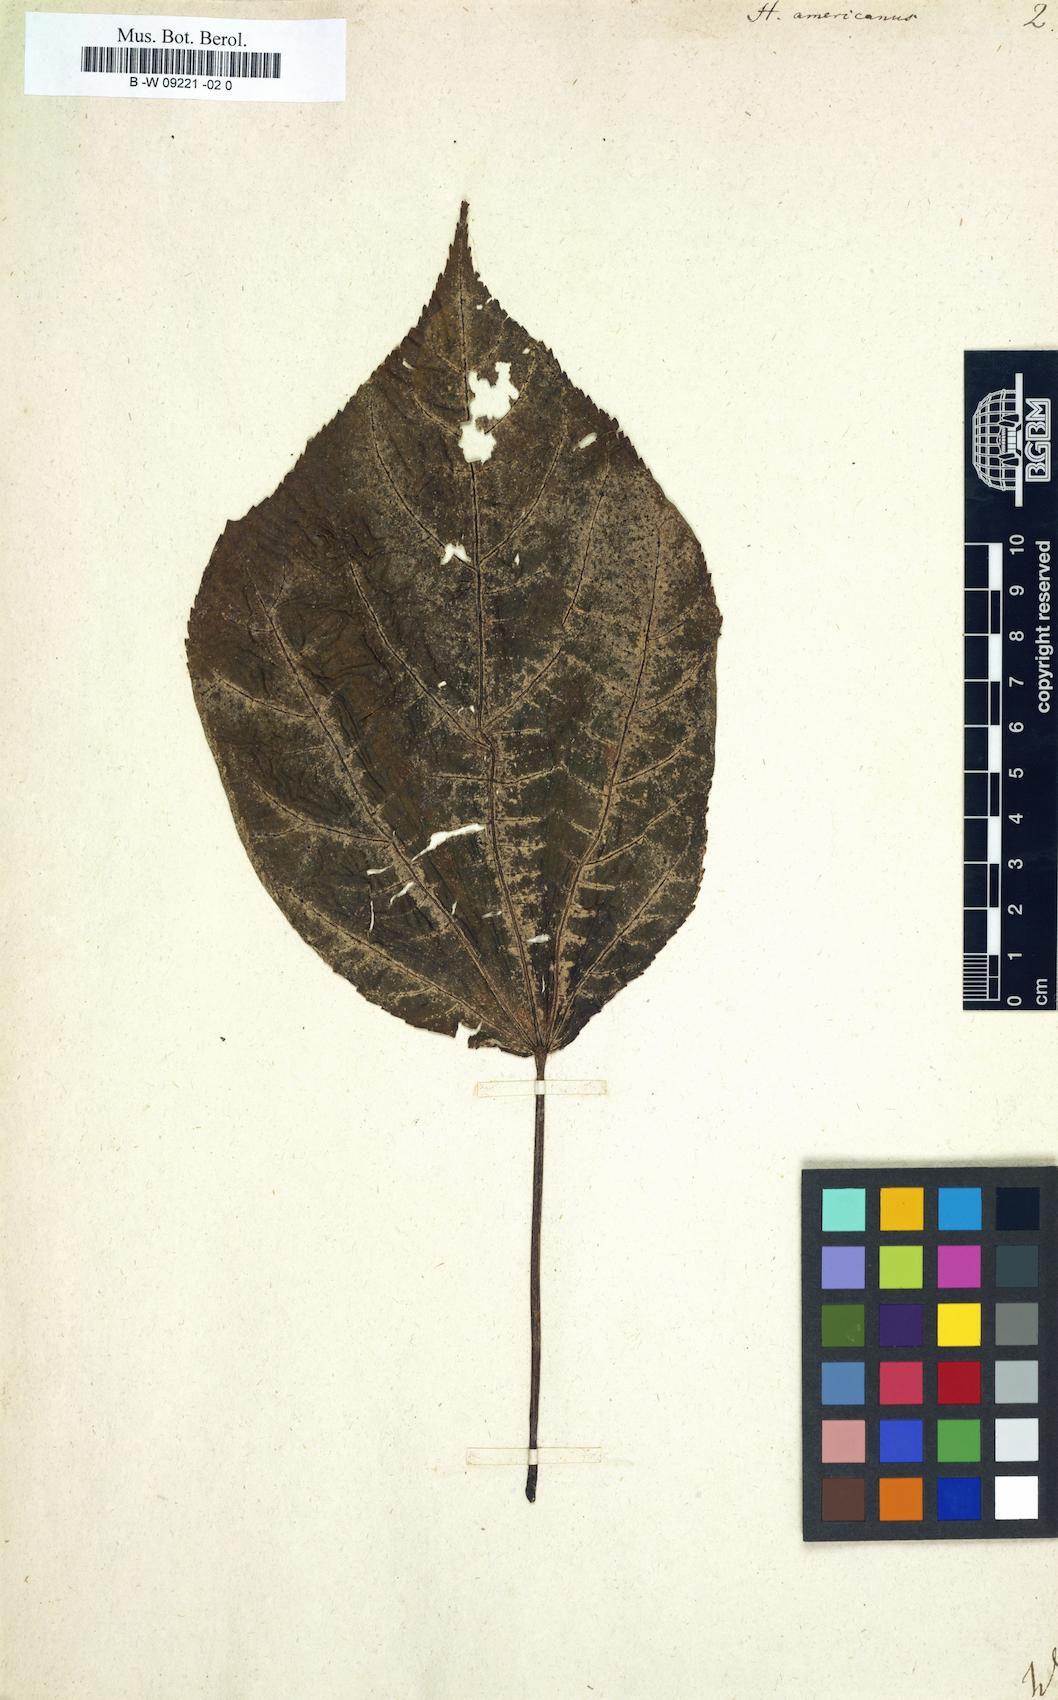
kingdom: Plantae
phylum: Tracheophyta
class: Magnoliopsida
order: Malvales
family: Malvaceae
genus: Heliocarpus
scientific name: Heliocarpus americanus
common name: White moho
